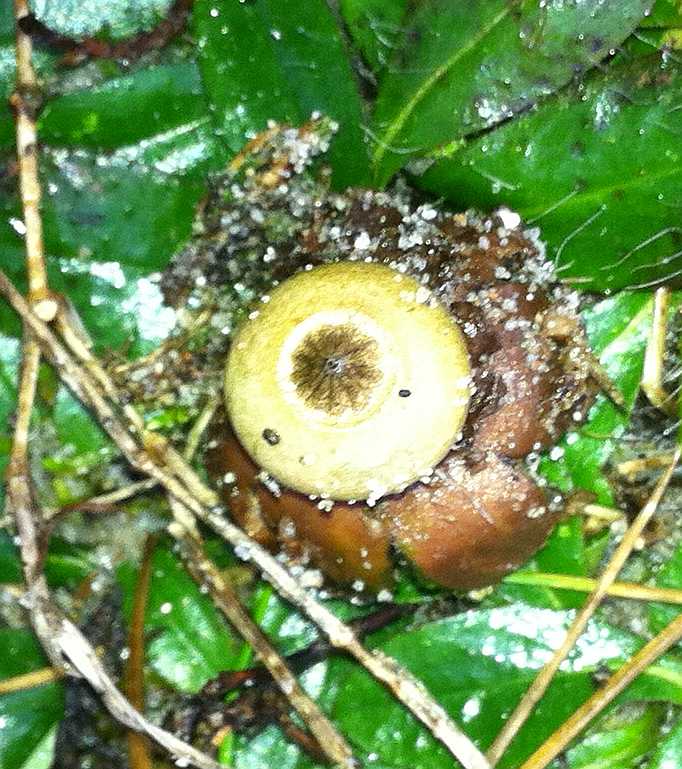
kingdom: Fungi
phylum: Basidiomycota
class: Agaricomycetes
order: Geastrales
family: Geastraceae
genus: Geastrum
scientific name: Geastrum striatum
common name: dværg-stjernebold
